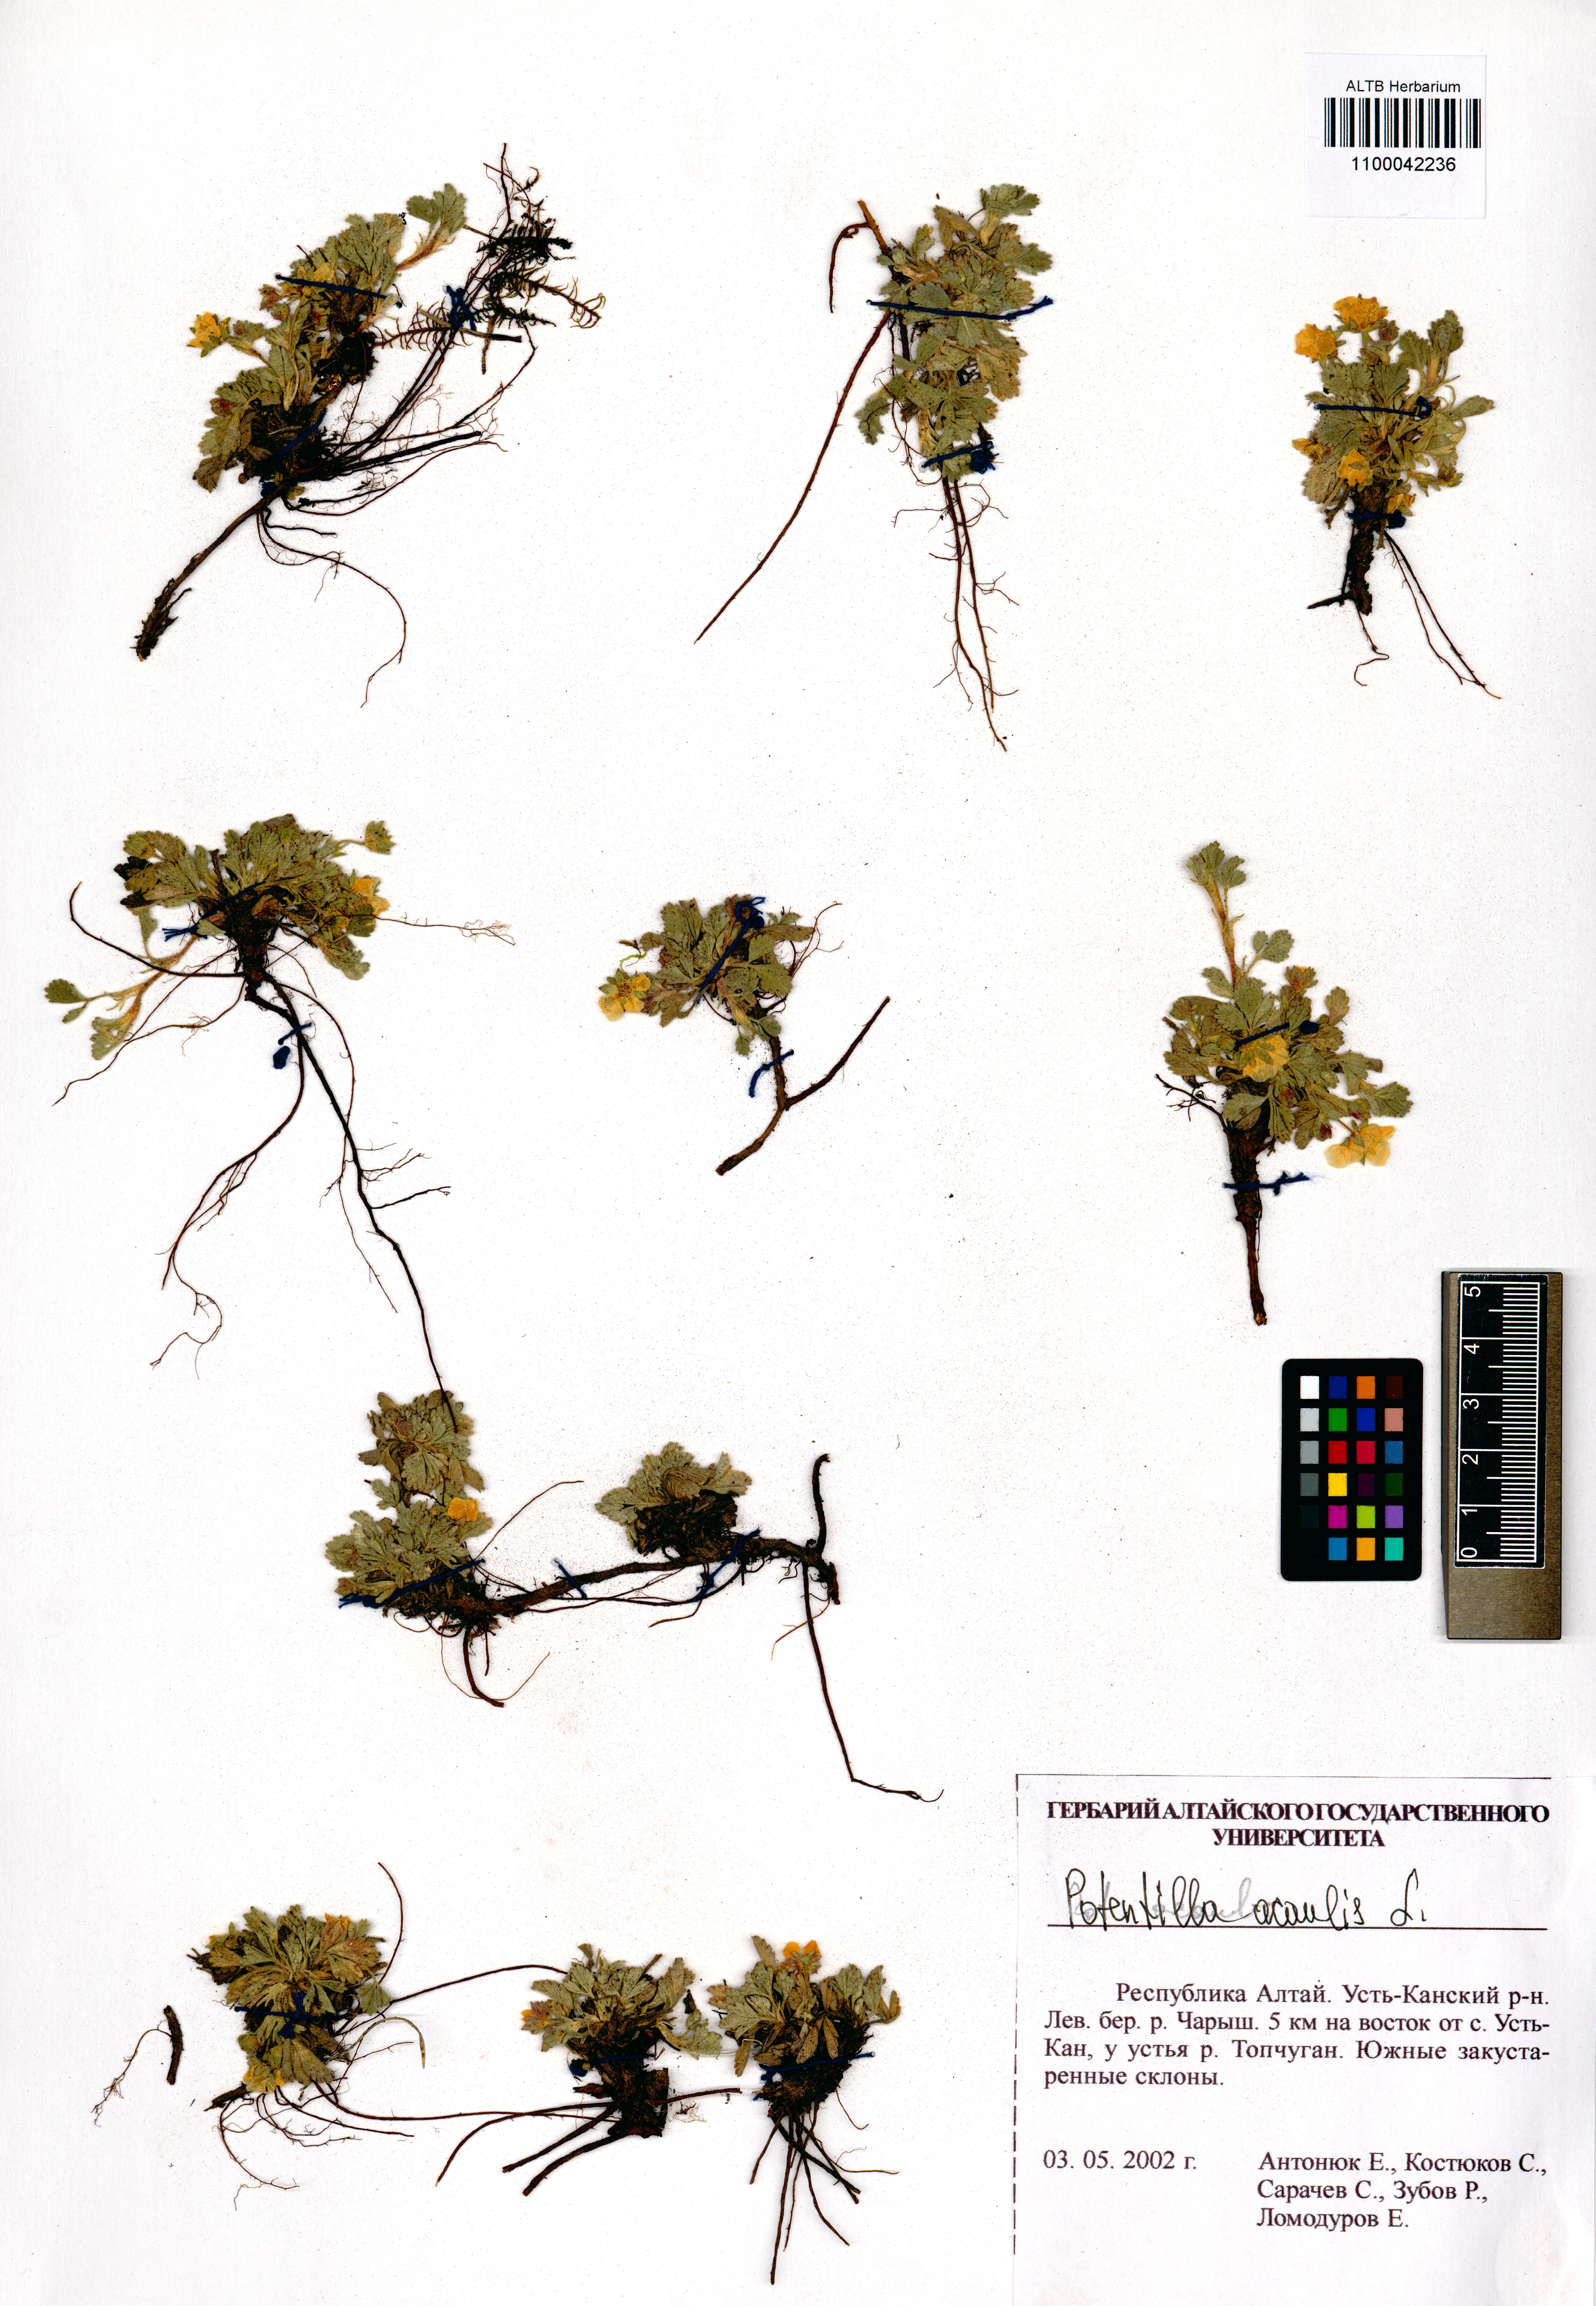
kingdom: Plantae
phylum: Tracheophyta
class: Magnoliopsida
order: Rosales
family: Rosaceae
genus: Potentilla
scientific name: Potentilla acaulis
